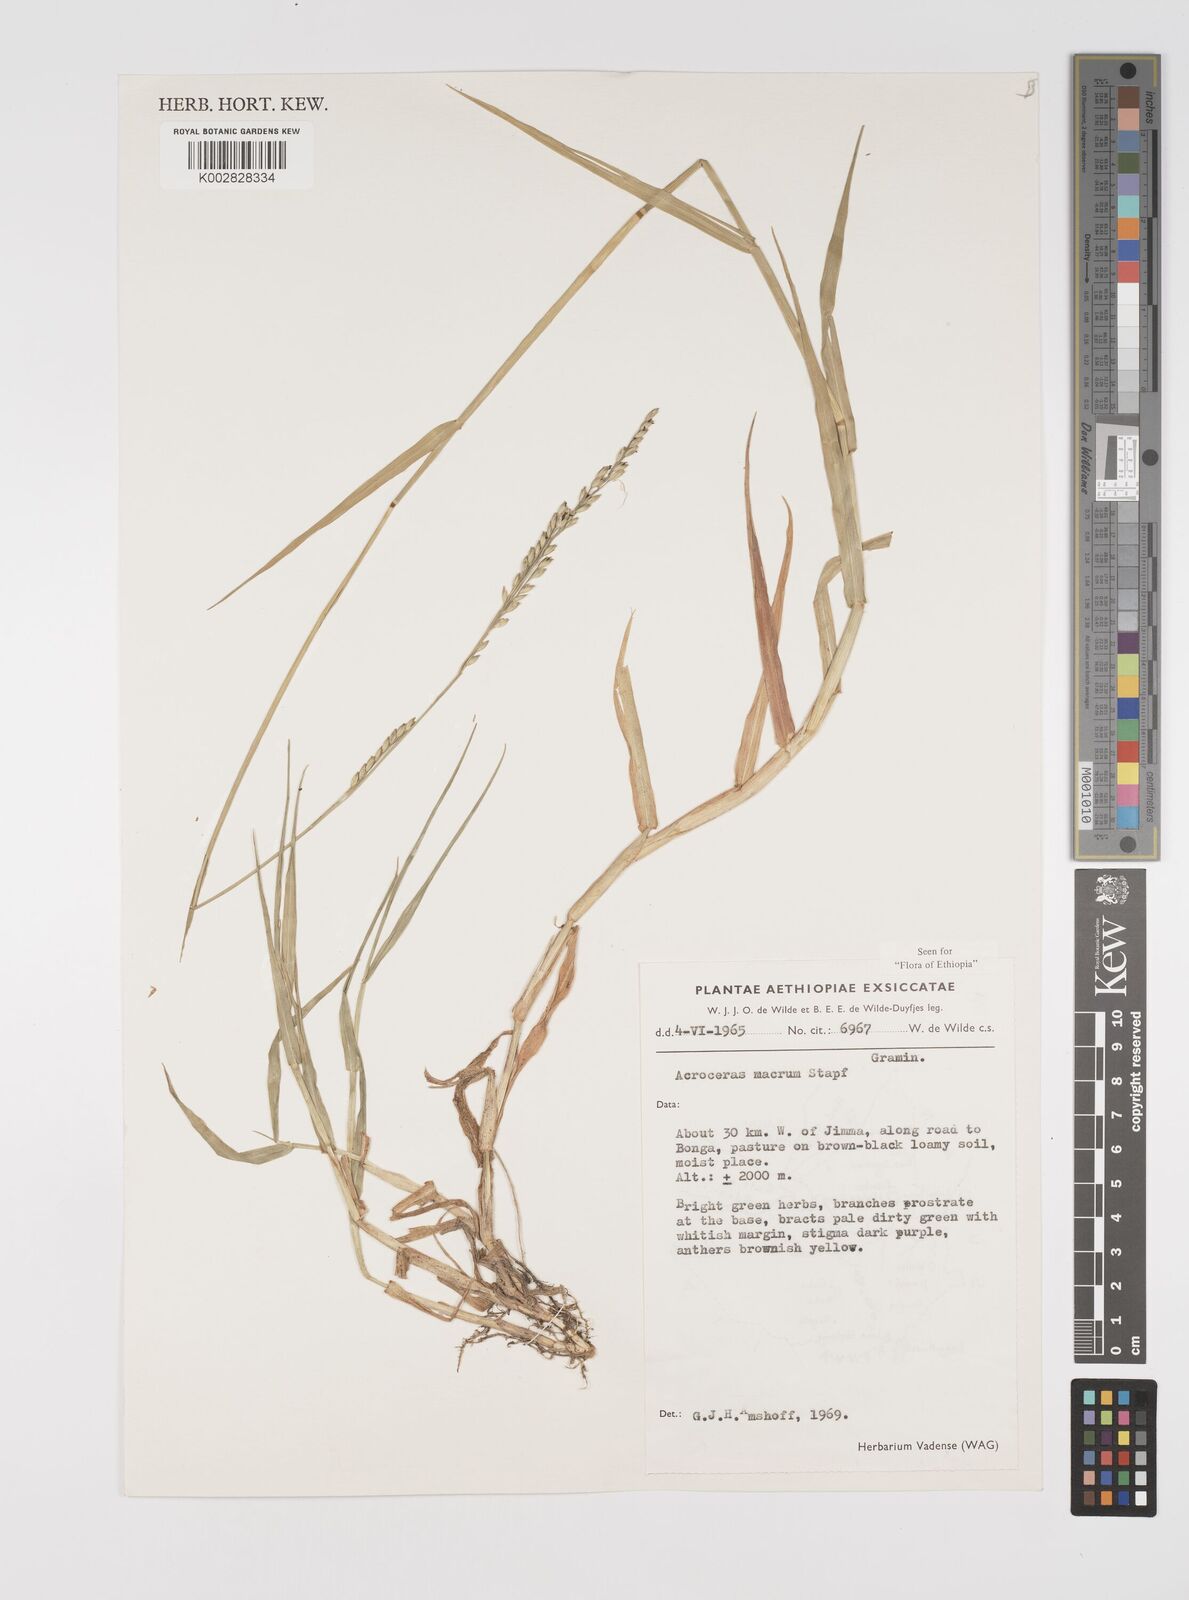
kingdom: Plantae
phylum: Tracheophyta
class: Liliopsida
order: Poales
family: Poaceae
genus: Acroceras
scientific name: Acroceras macrum
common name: Nyl grass
